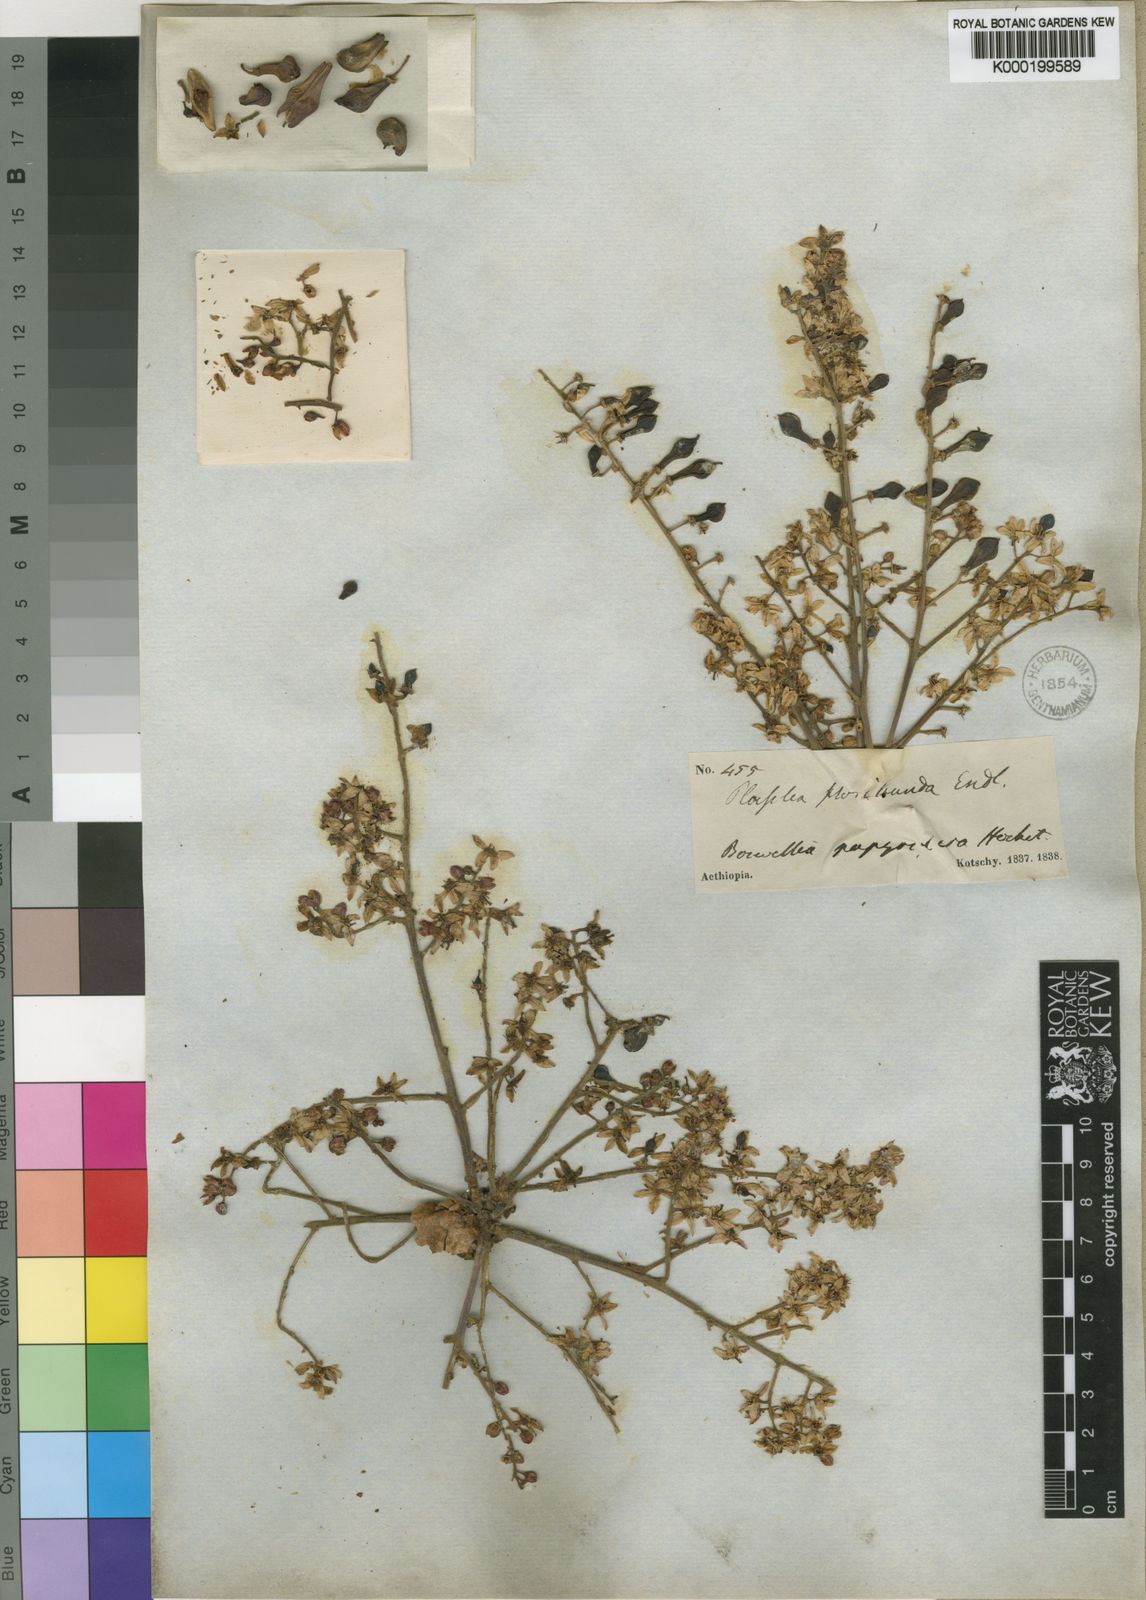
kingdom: Plantae
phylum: Tracheophyta
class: Magnoliopsida
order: Sapindales
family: Burseraceae
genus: Boswellia
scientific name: Boswellia papyrifera
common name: Sudanese frankincense
